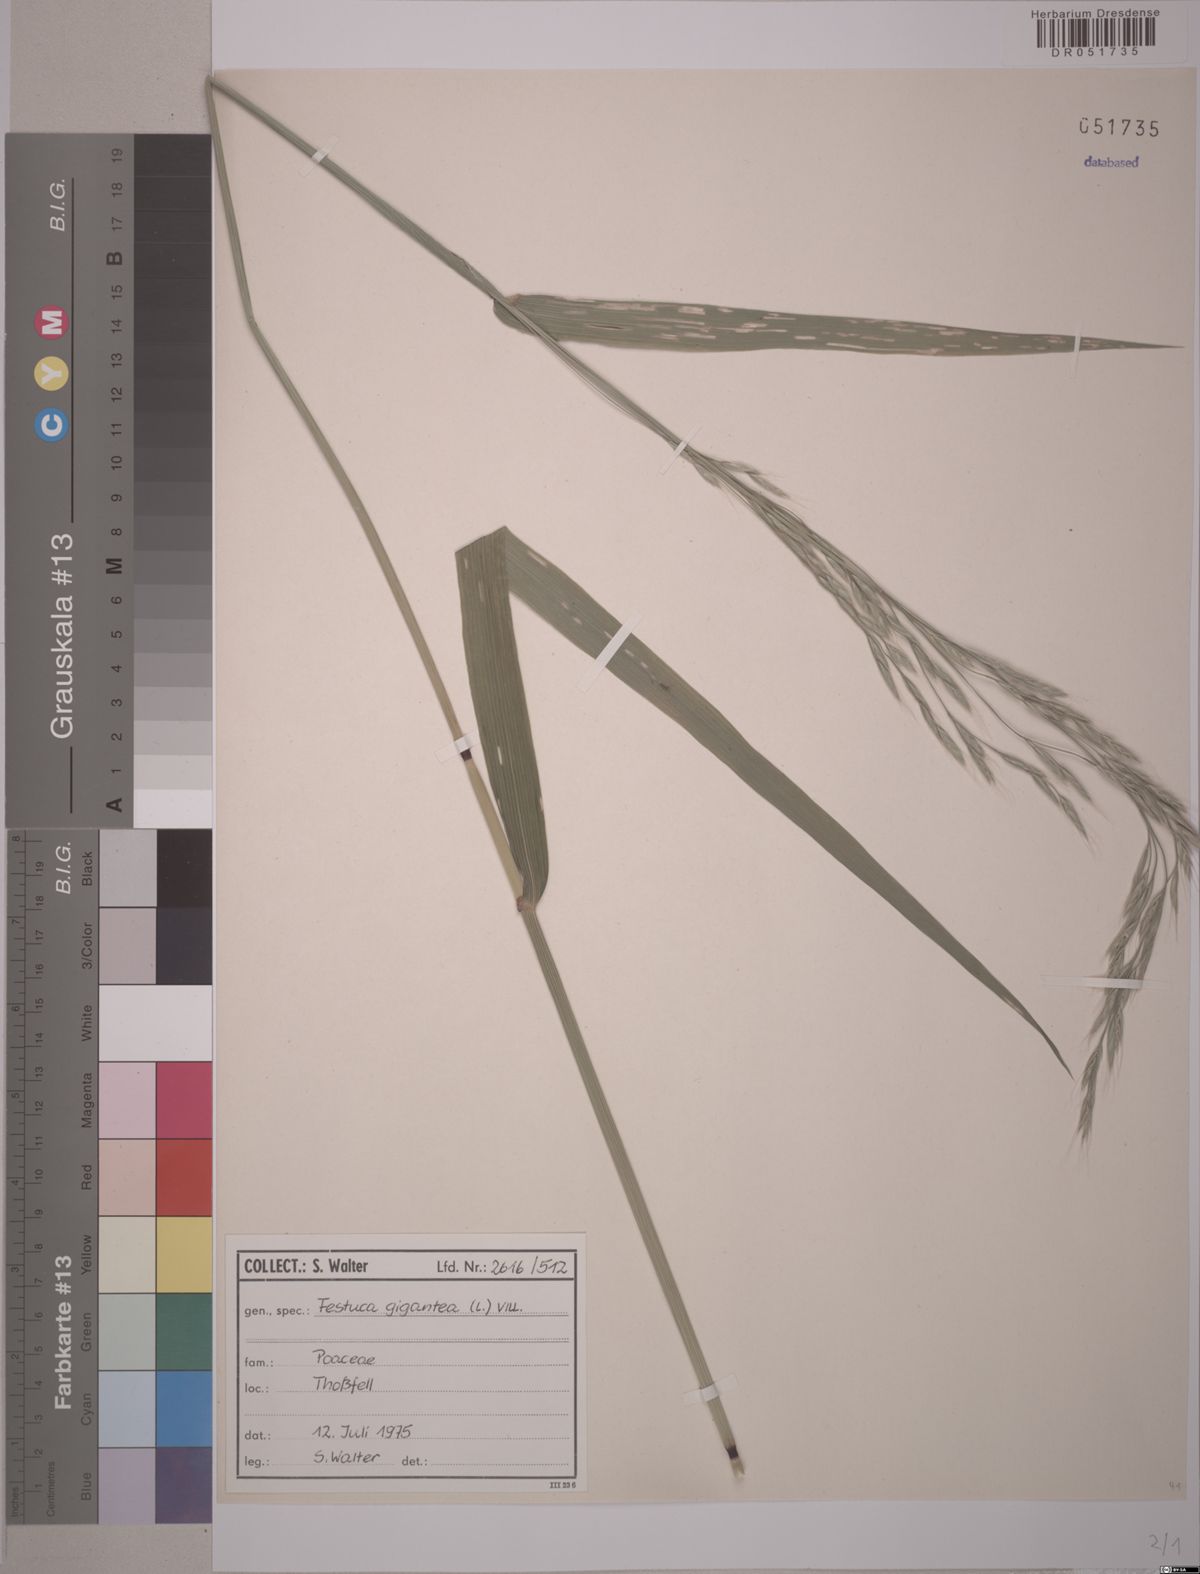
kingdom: Plantae
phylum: Tracheophyta
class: Liliopsida
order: Poales
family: Poaceae
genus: Lolium
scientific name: Lolium giganteum
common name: Giant fescue
